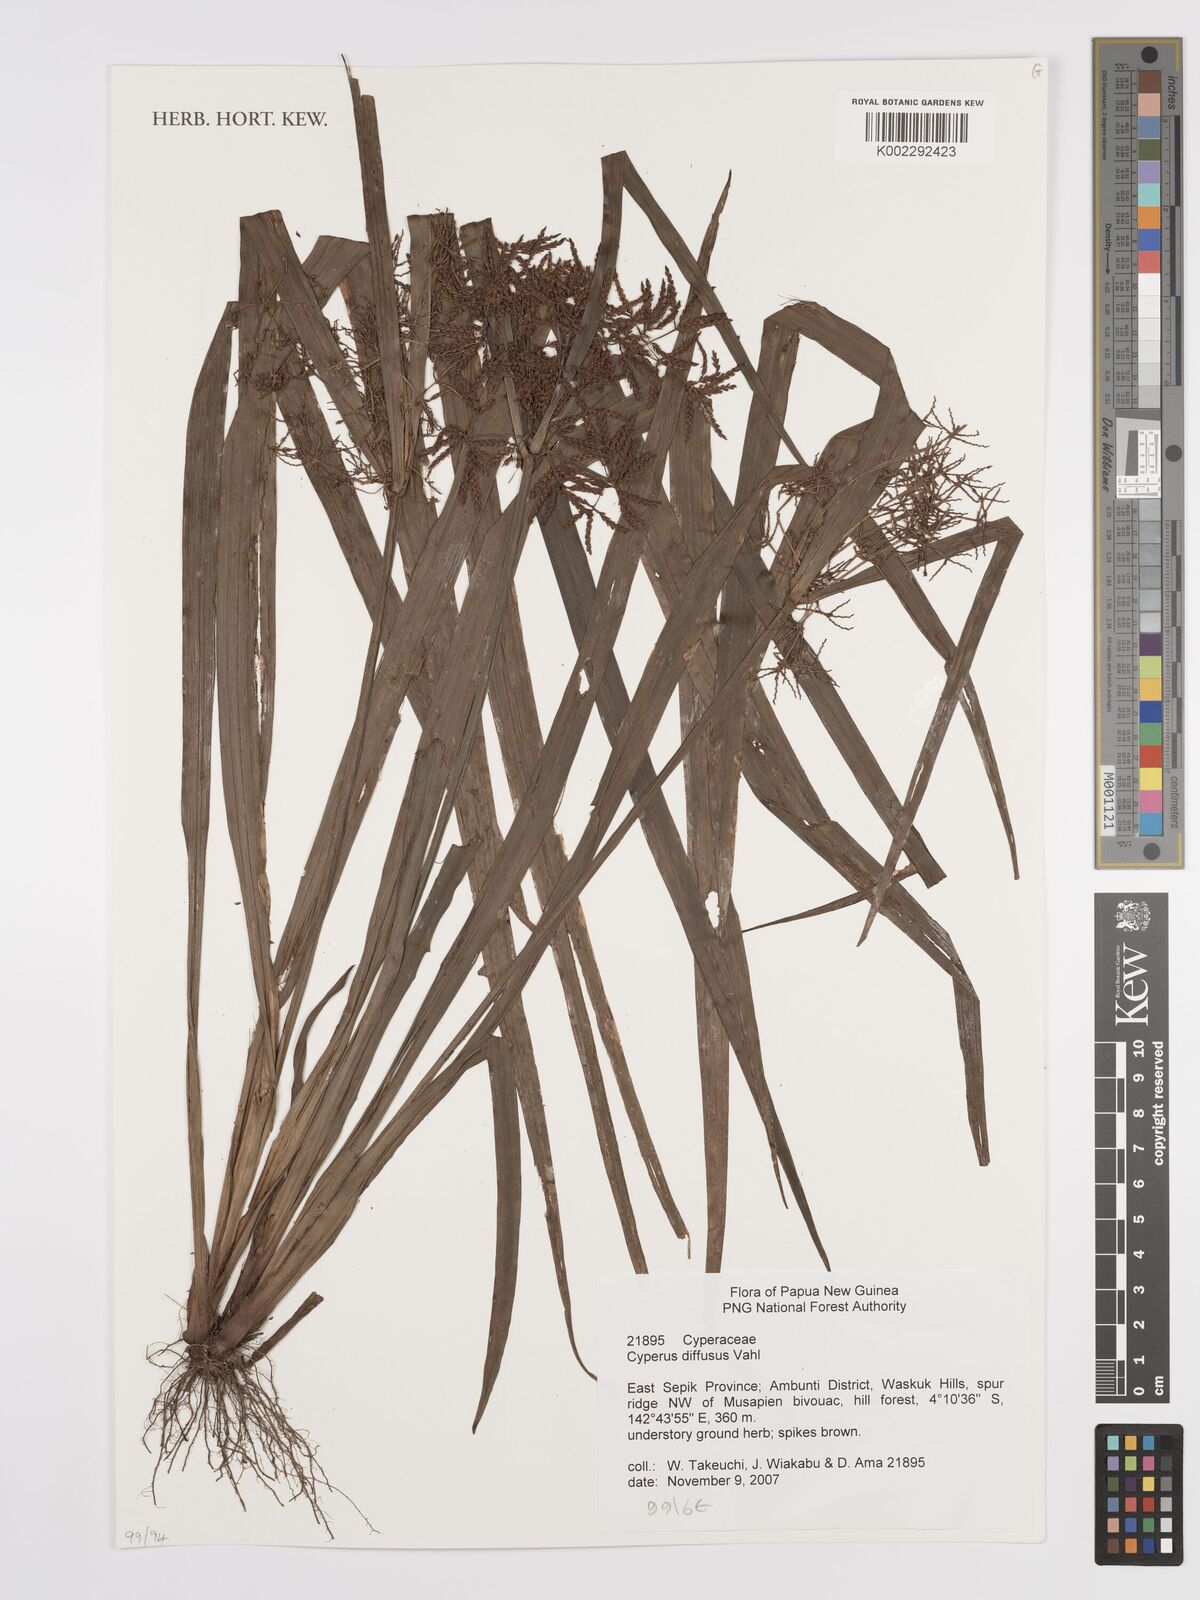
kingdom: Plantae
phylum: Tracheophyta
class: Liliopsida
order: Poales
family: Cyperaceae
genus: Cyperus
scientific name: Cyperus diffusus
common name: Dwarf umbrella grass
